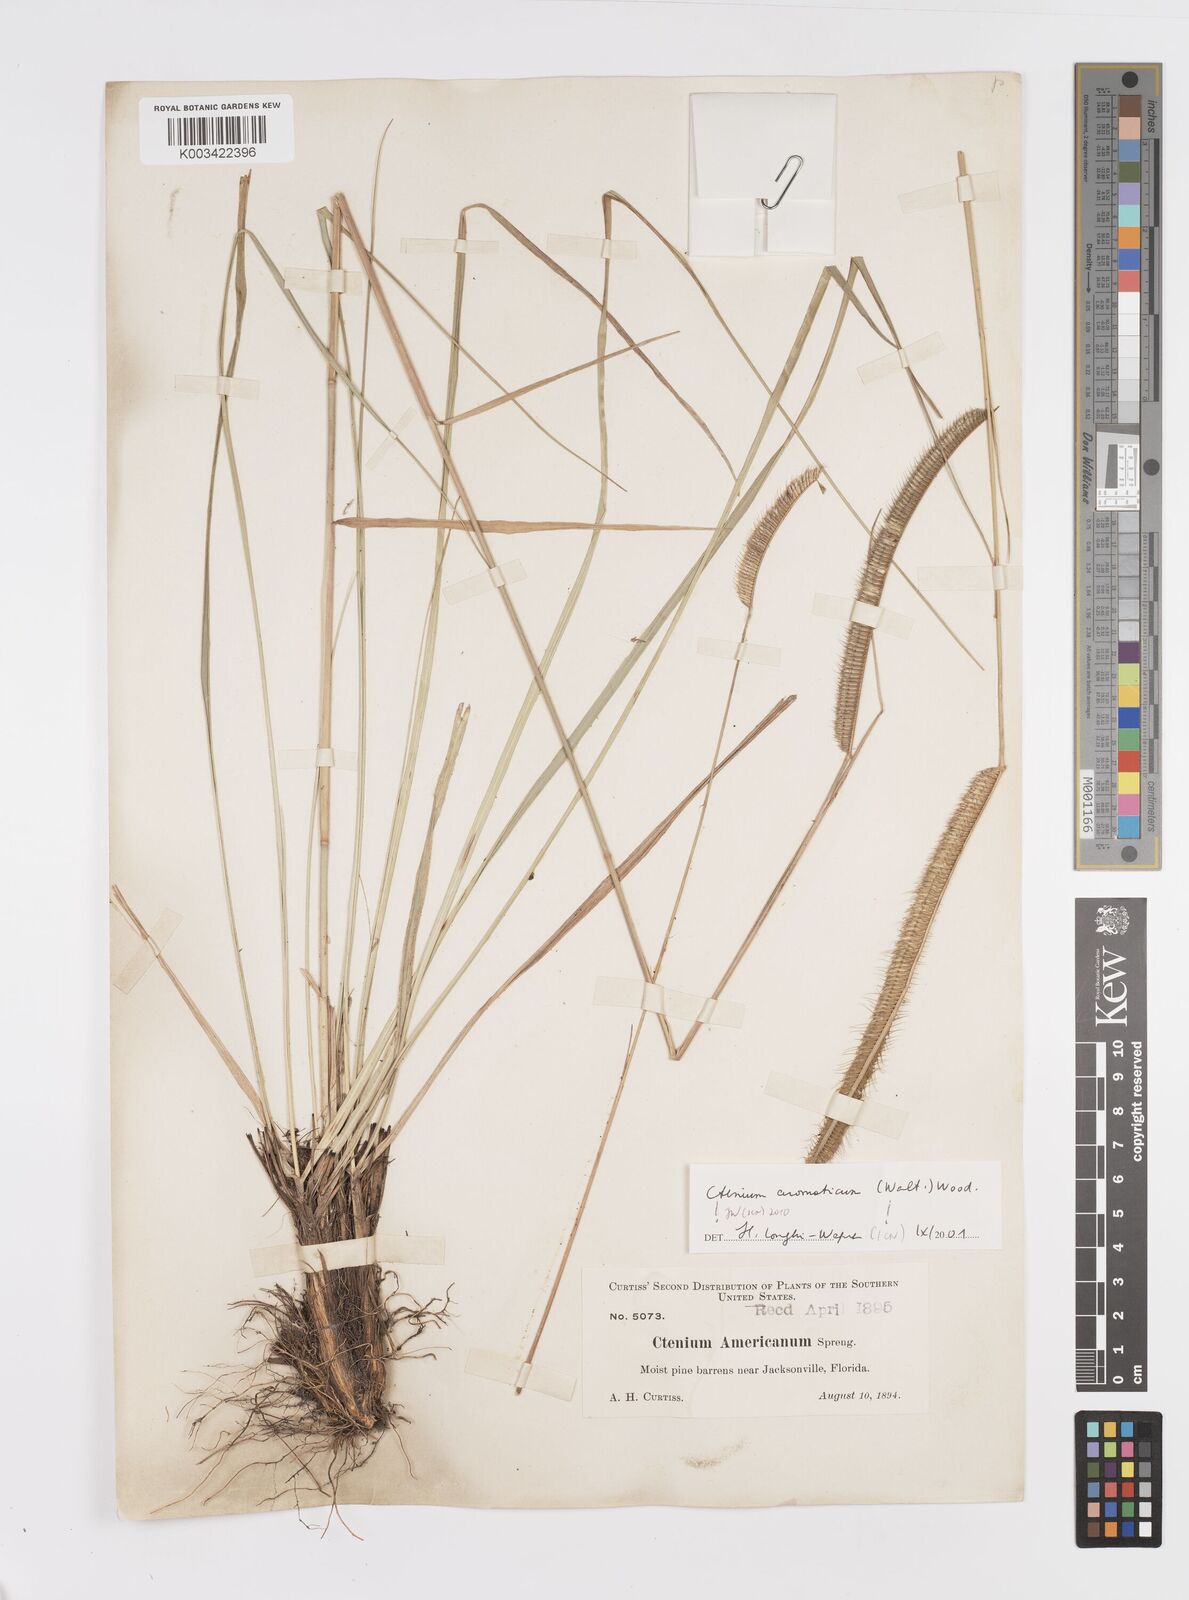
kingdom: Plantae
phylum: Tracheophyta
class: Liliopsida
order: Poales
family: Poaceae
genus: Ctenium
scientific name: Ctenium aromaticum
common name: Toothache grass
